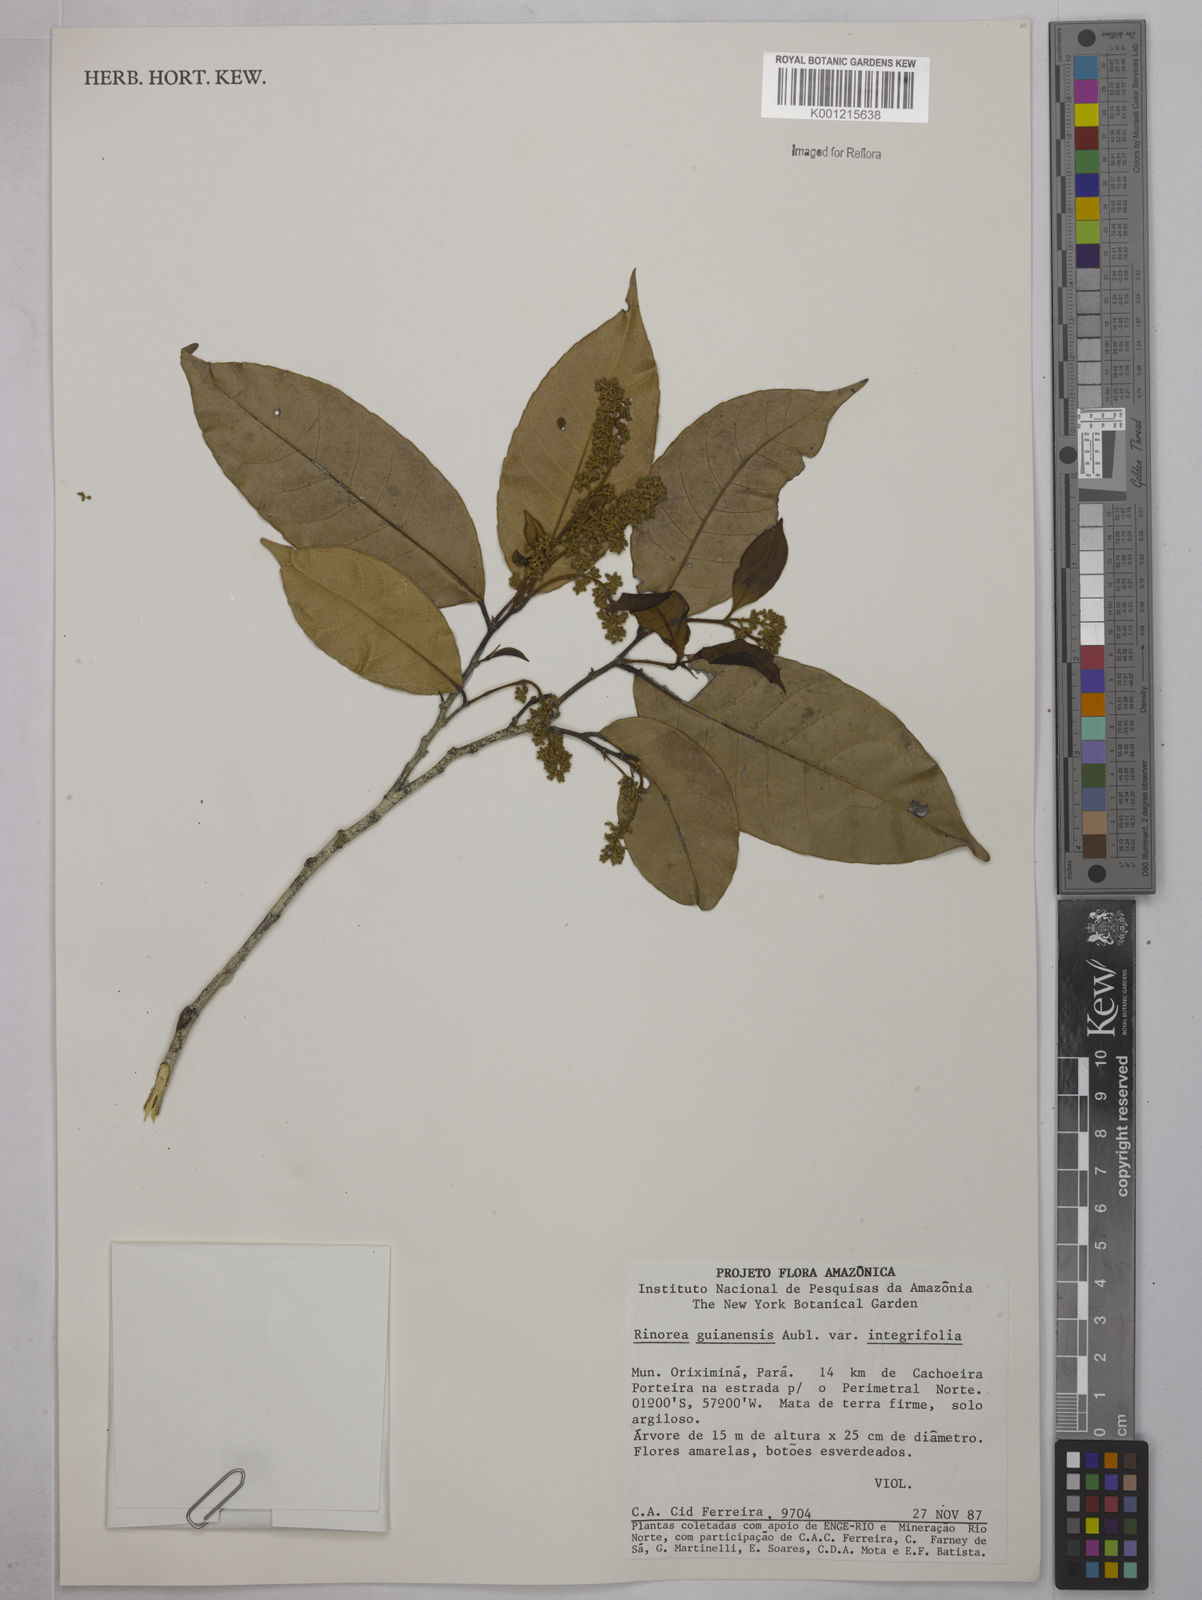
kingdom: Plantae
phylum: Tracheophyta
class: Magnoliopsida
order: Malpighiales
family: Violaceae
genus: Rinorea
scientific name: Rinorea guianensis
